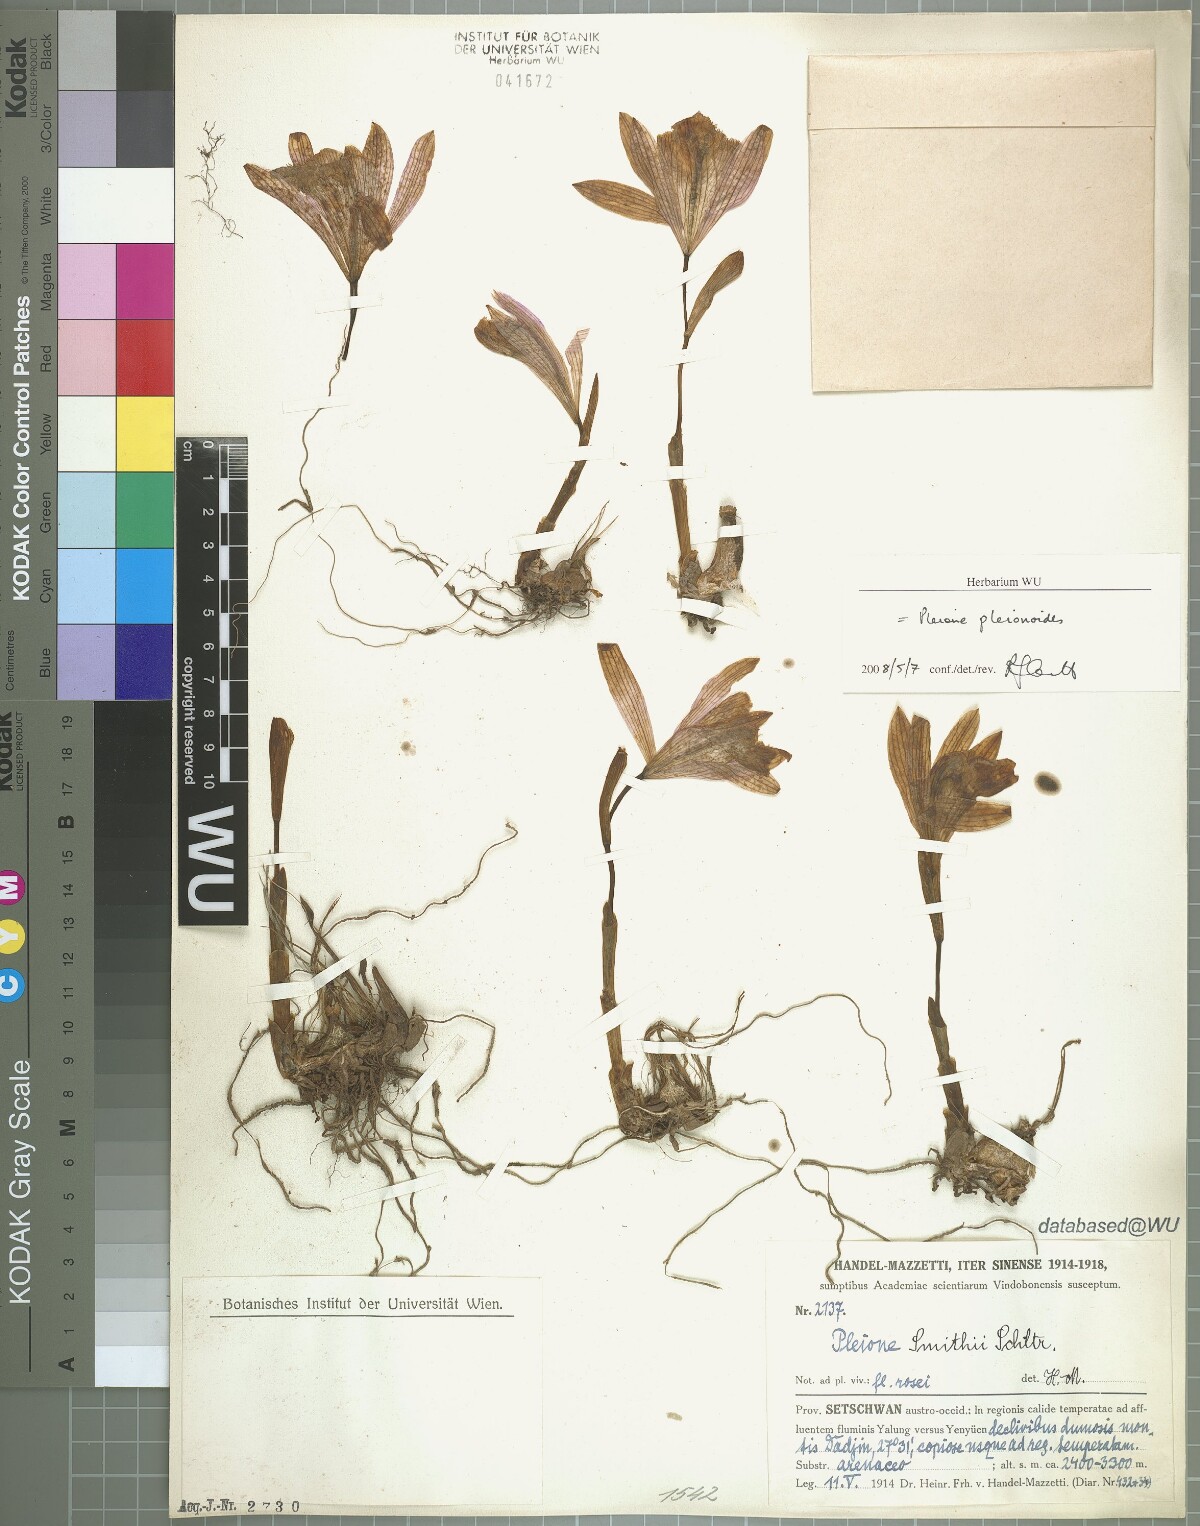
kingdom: Plantae
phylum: Tracheophyta
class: Liliopsida
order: Asparagales
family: Orchidaceae
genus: Pleione
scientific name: Pleione pleionoides
